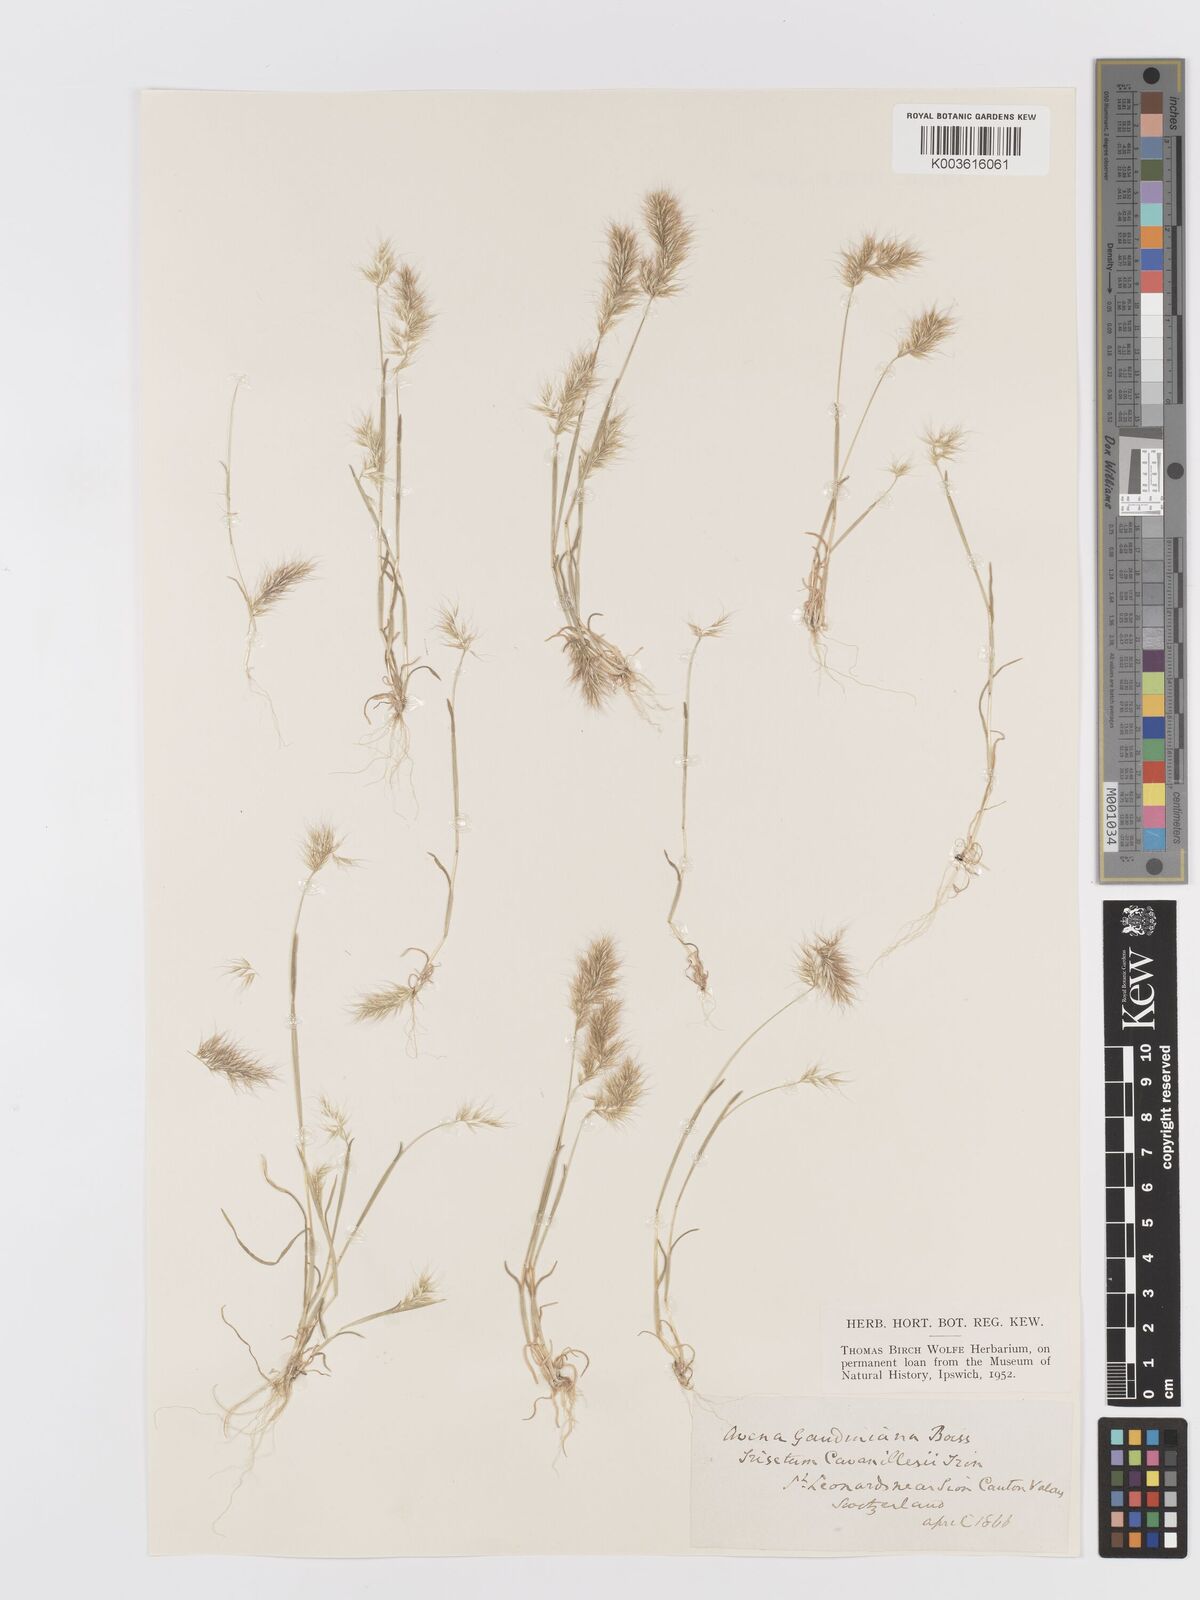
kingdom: Plantae
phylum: Tracheophyta
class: Liliopsida
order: Poales
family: Poaceae
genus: Trisetaria
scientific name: Trisetaria loeflingiana
